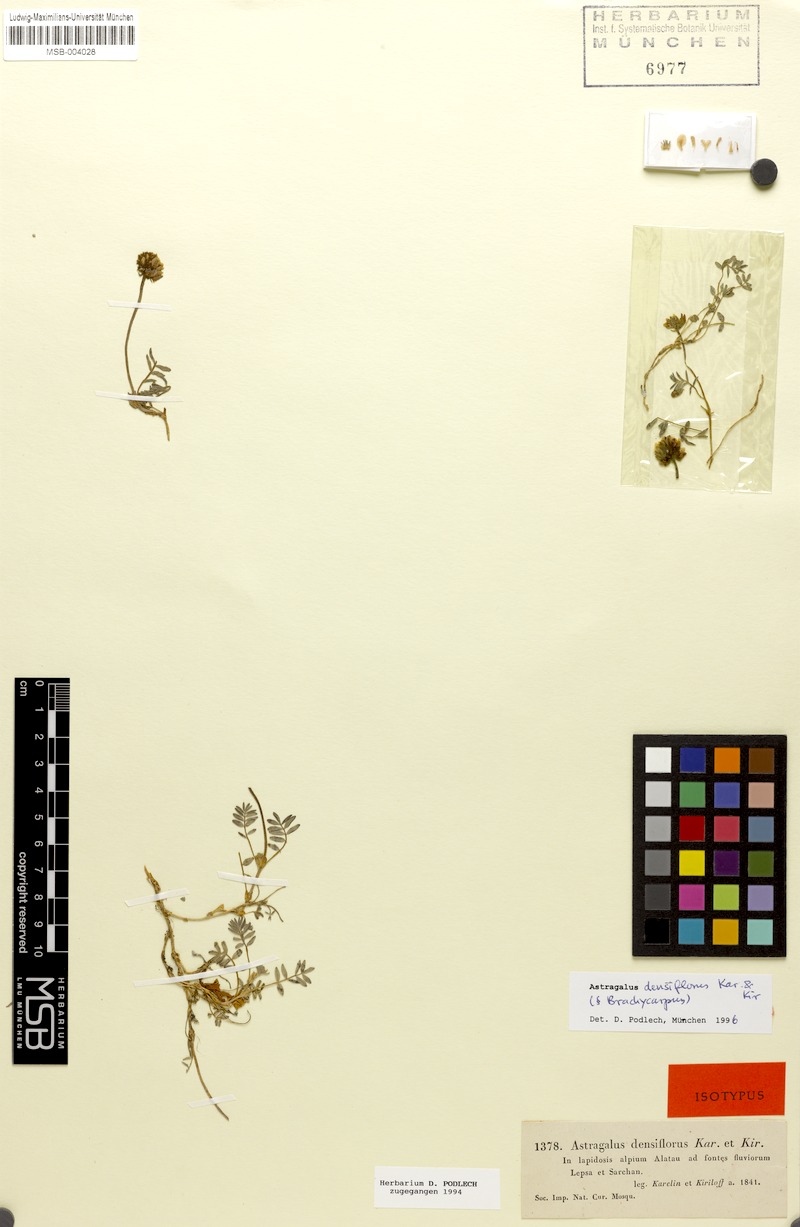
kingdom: Plantae
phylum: Tracheophyta
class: Magnoliopsida
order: Fabales
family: Fabaceae
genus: Astragalus
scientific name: Astragalus densiflorus
